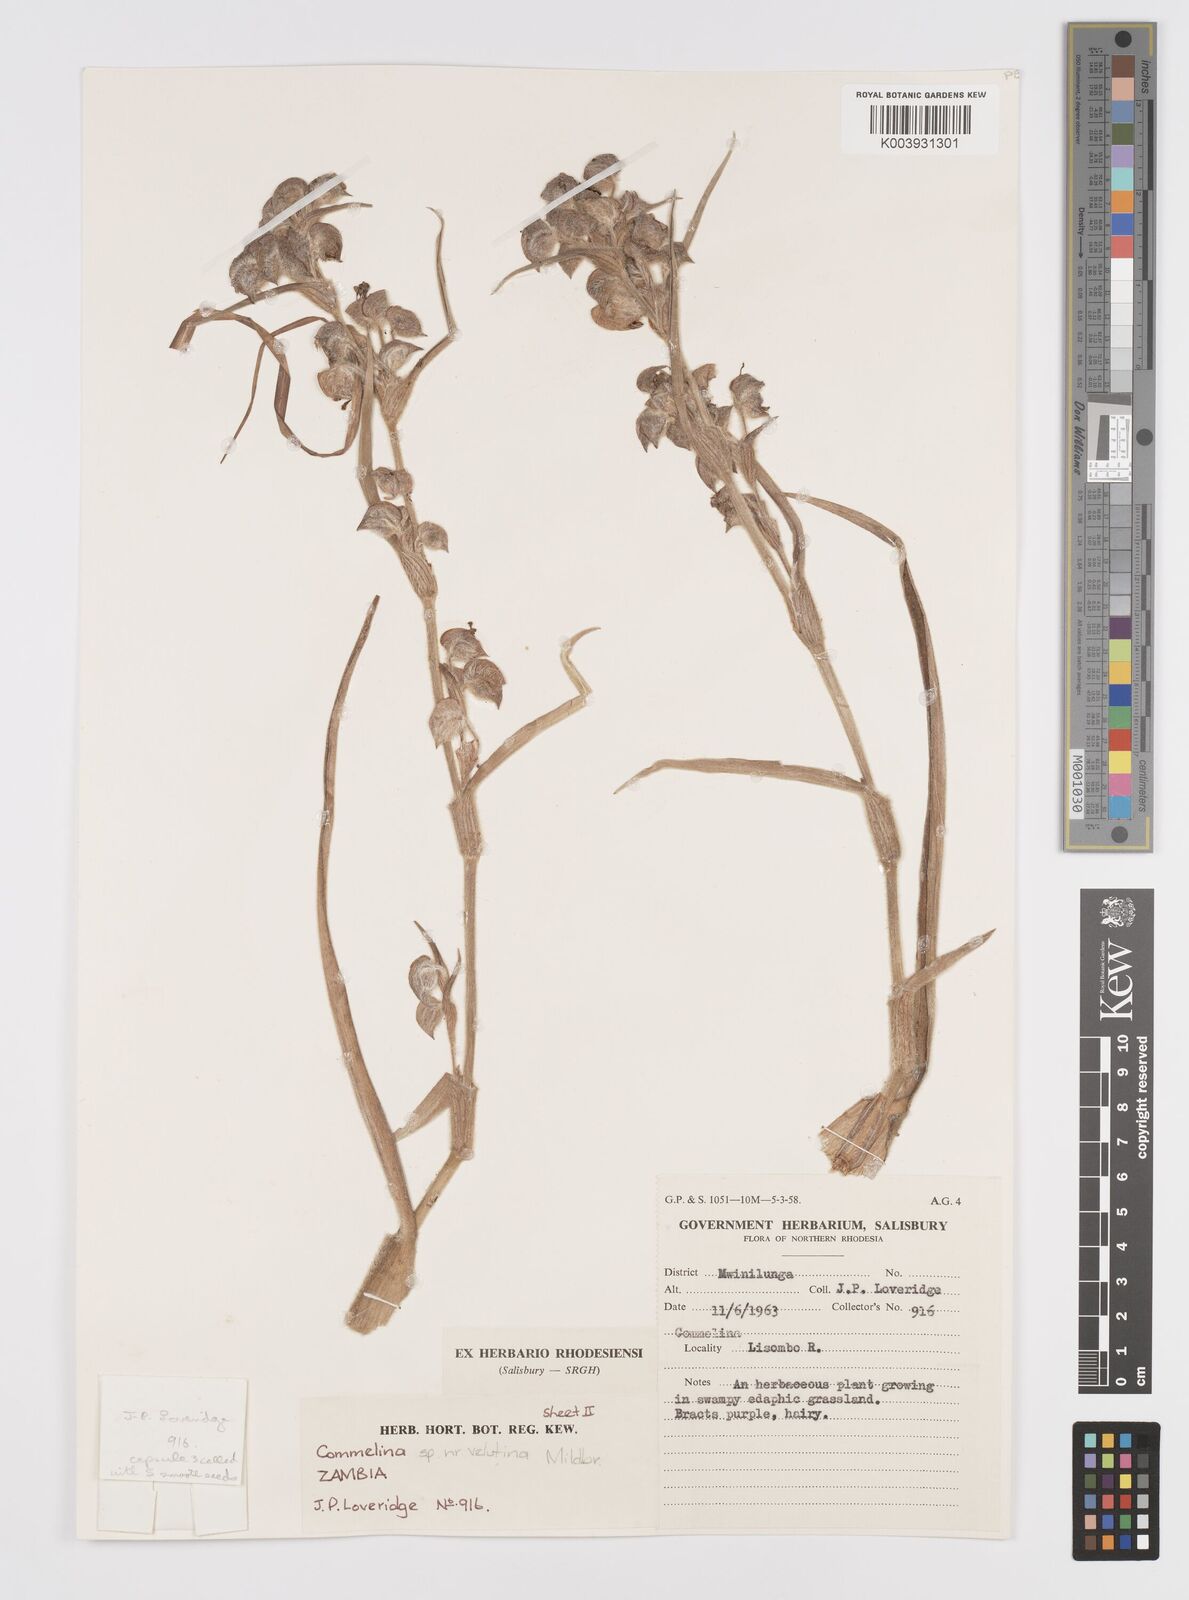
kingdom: Plantae
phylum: Tracheophyta
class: Liliopsida
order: Commelinales
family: Commelinaceae
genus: Commelina
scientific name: Commelina velutina
